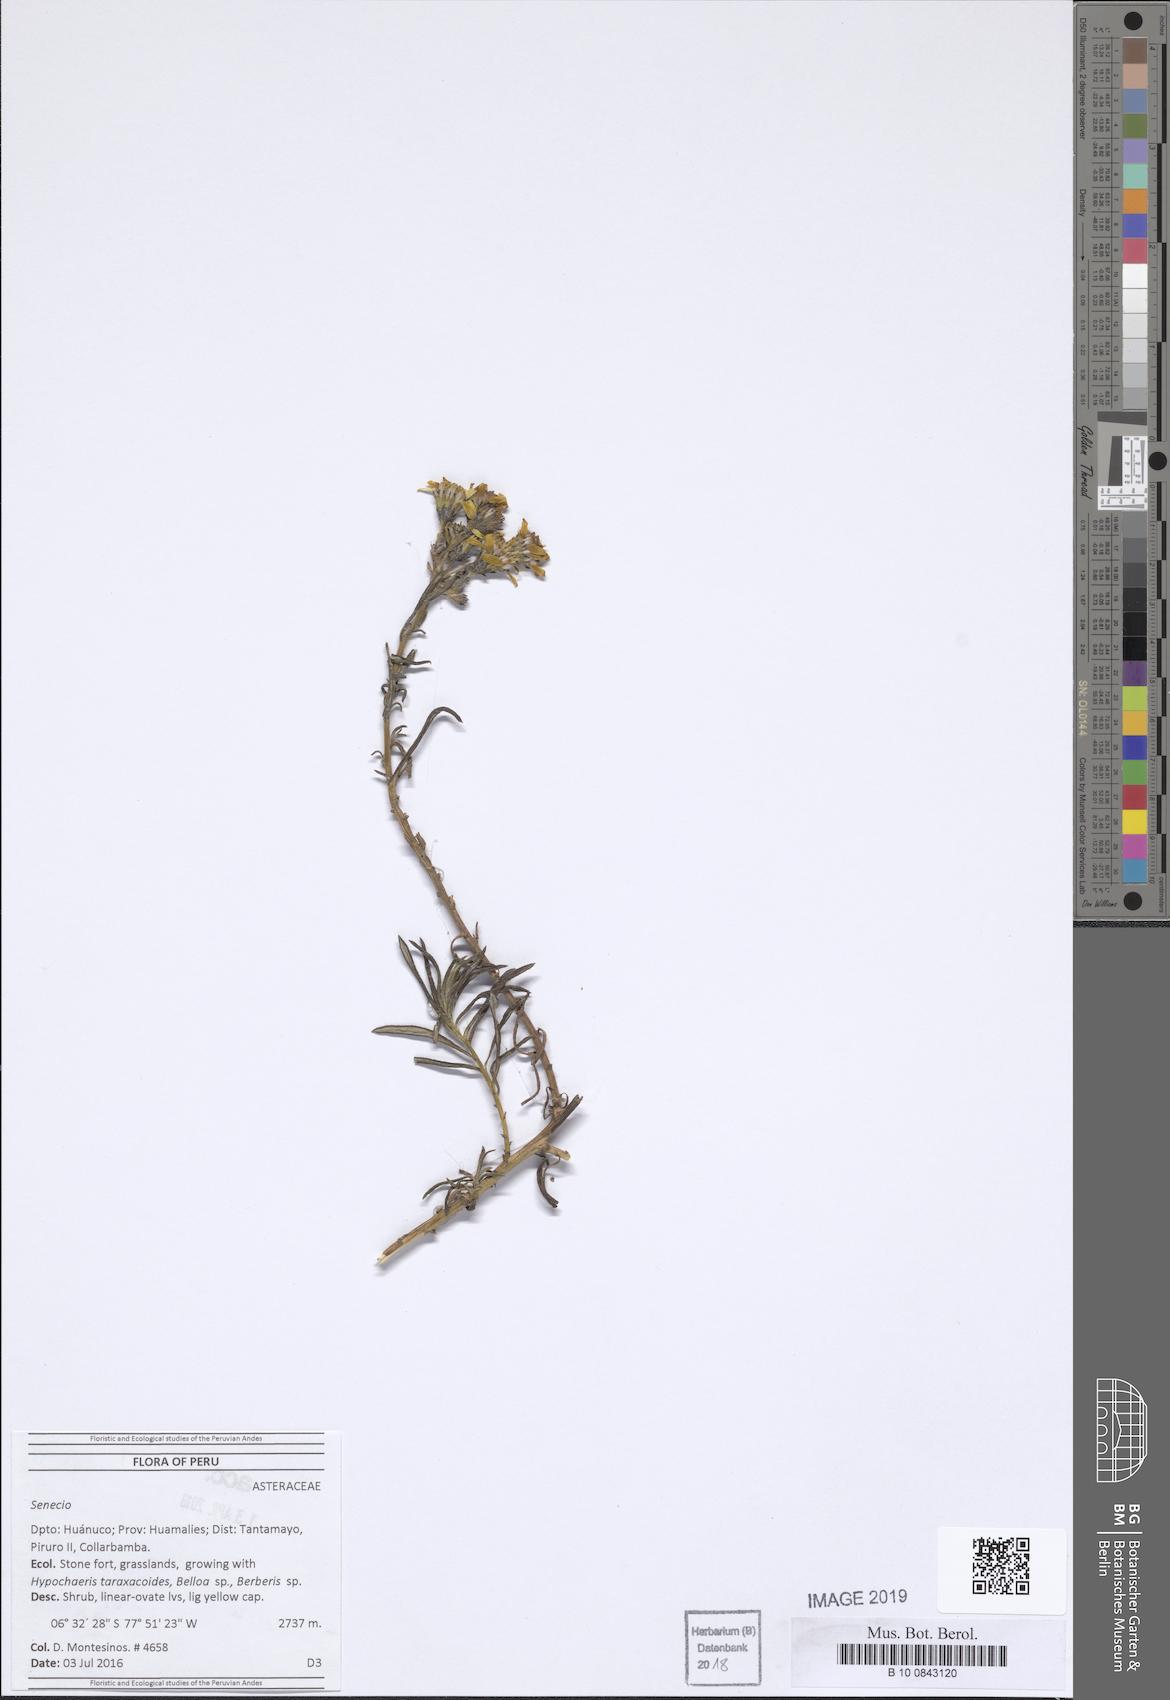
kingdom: Plantae
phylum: Tracheophyta
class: Magnoliopsida
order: Asterales
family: Asteraceae
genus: Senecio
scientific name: Senecio
